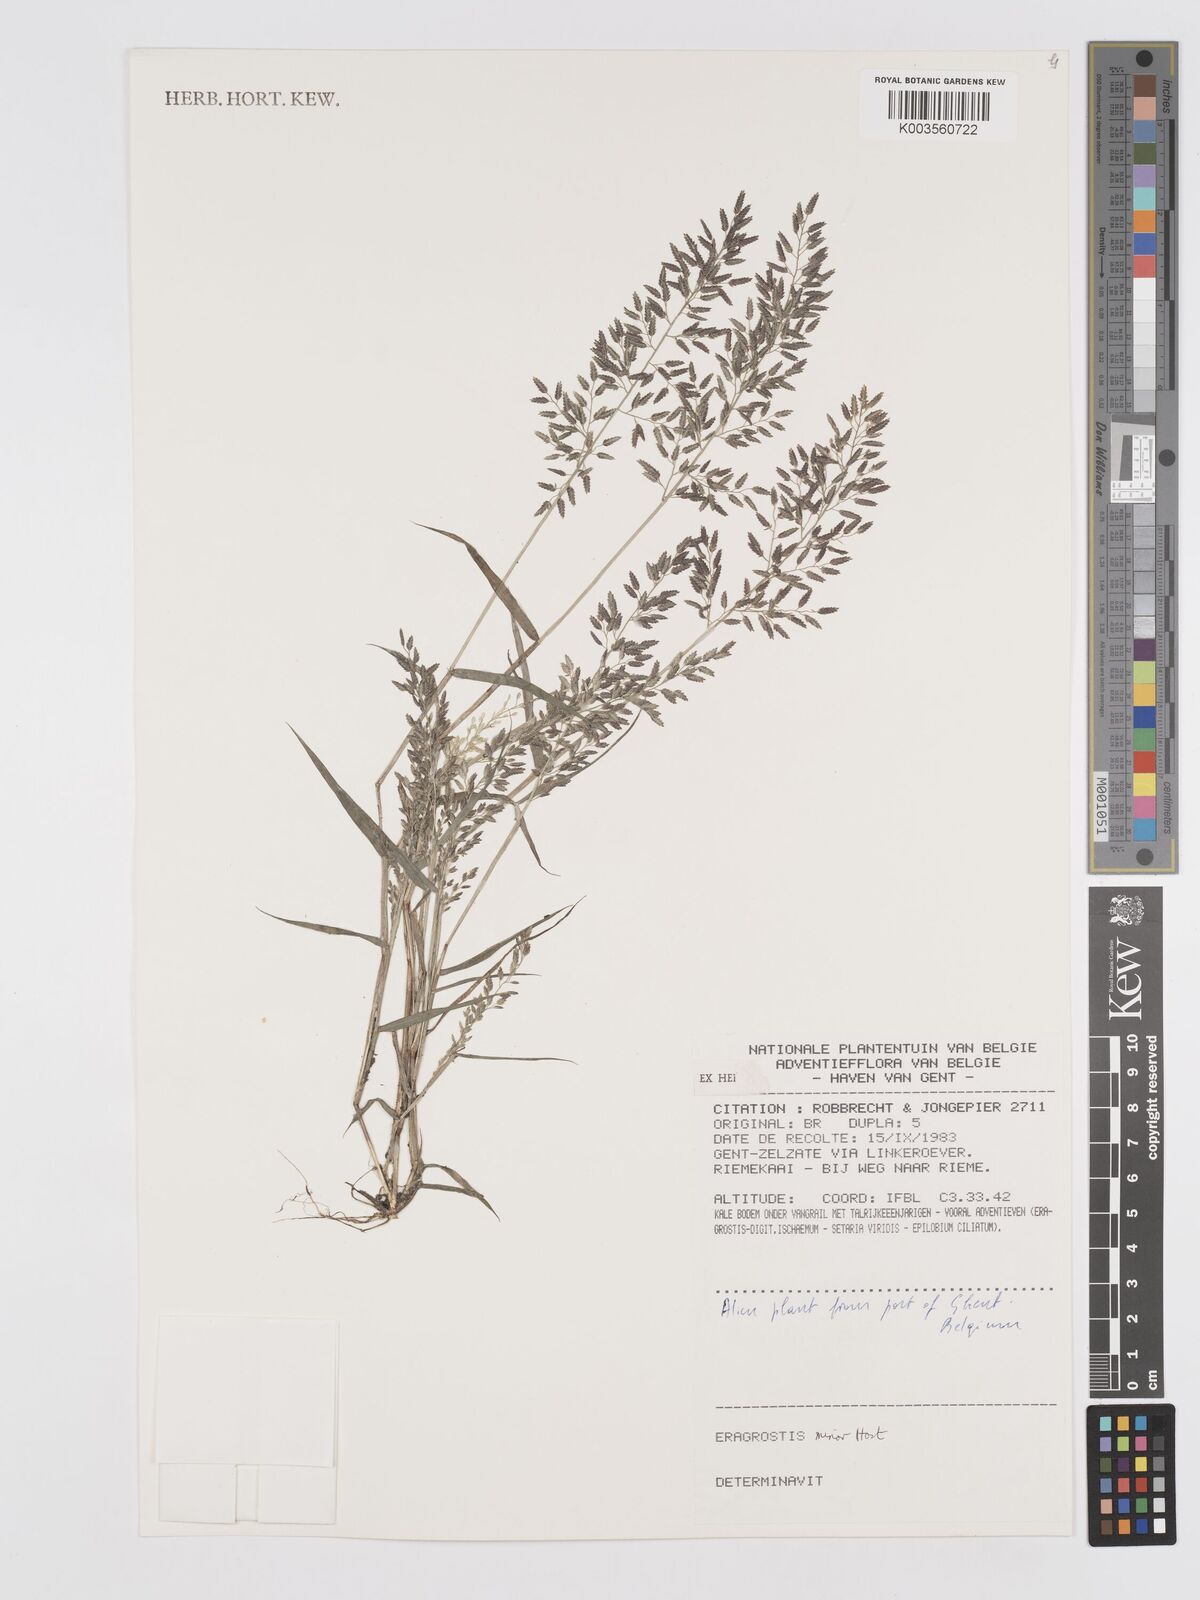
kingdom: Plantae
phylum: Tracheophyta
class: Liliopsida
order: Poales
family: Poaceae
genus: Eragrostis
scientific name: Eragrostis minor
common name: Small love-grass
